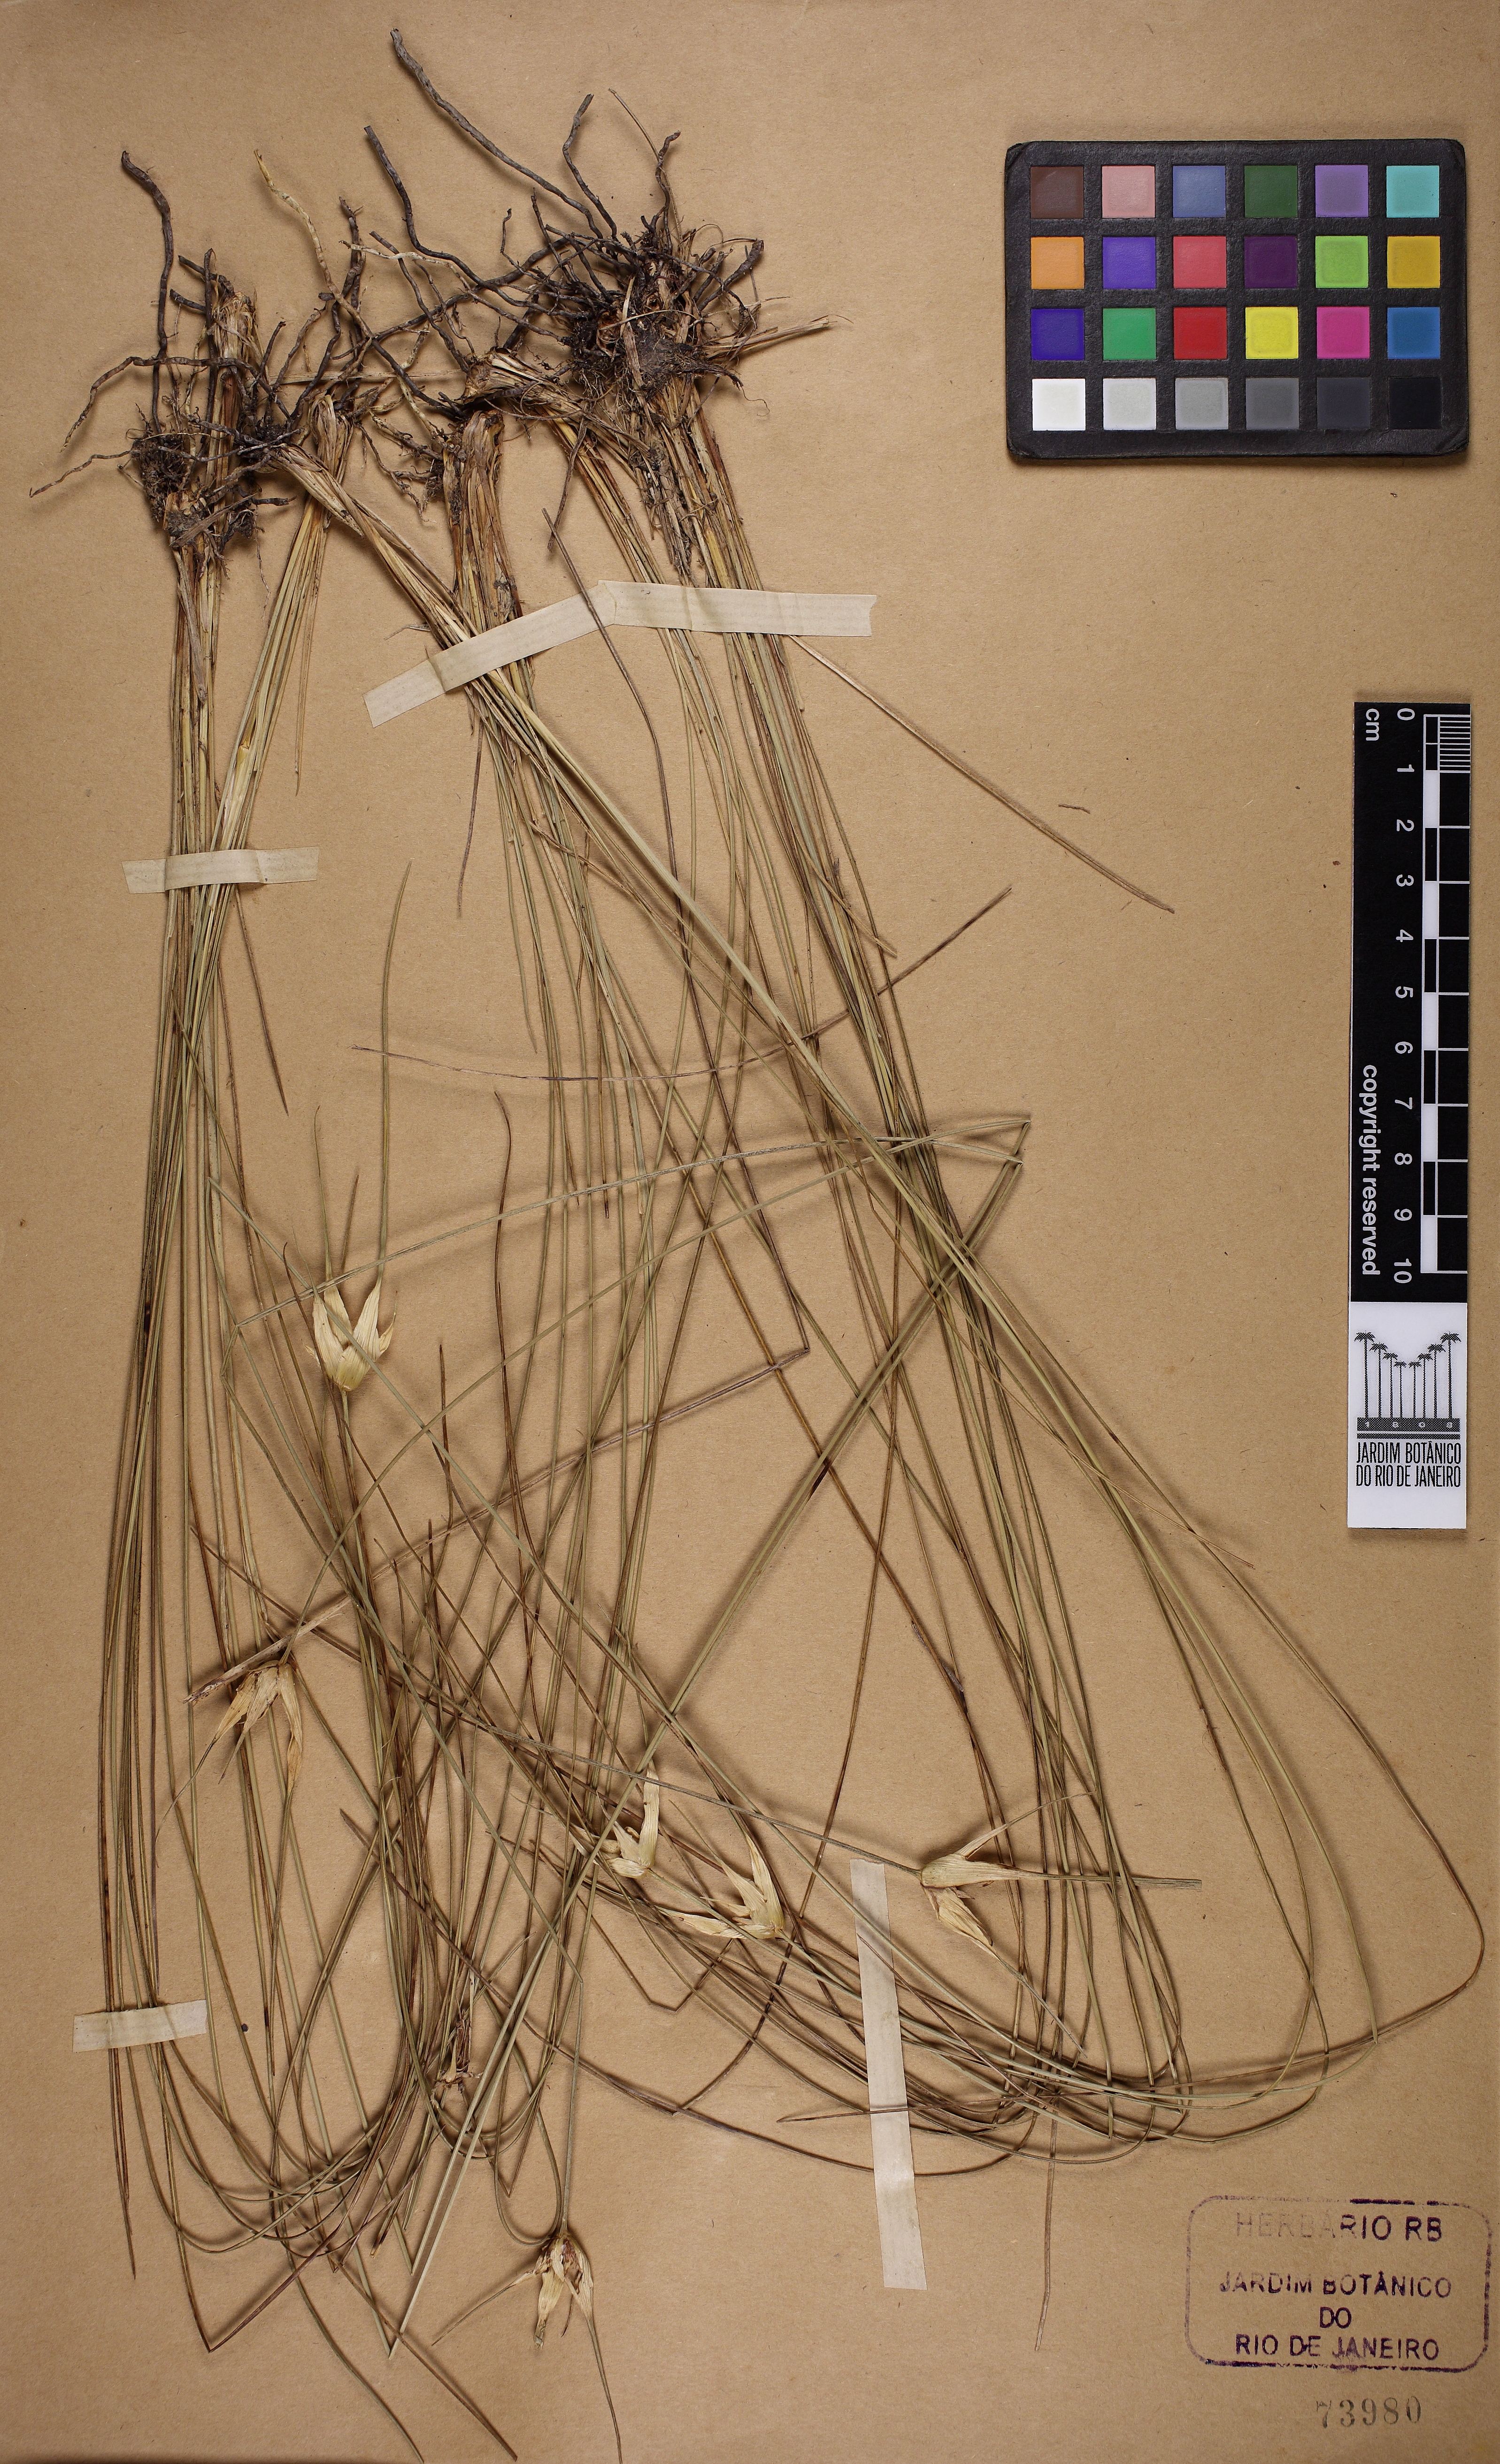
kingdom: Plantae
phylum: Tracheophyta
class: Liliopsida
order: Poales
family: Cyperaceae
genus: Rhynchospora
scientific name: Rhynchospora albobracteata
